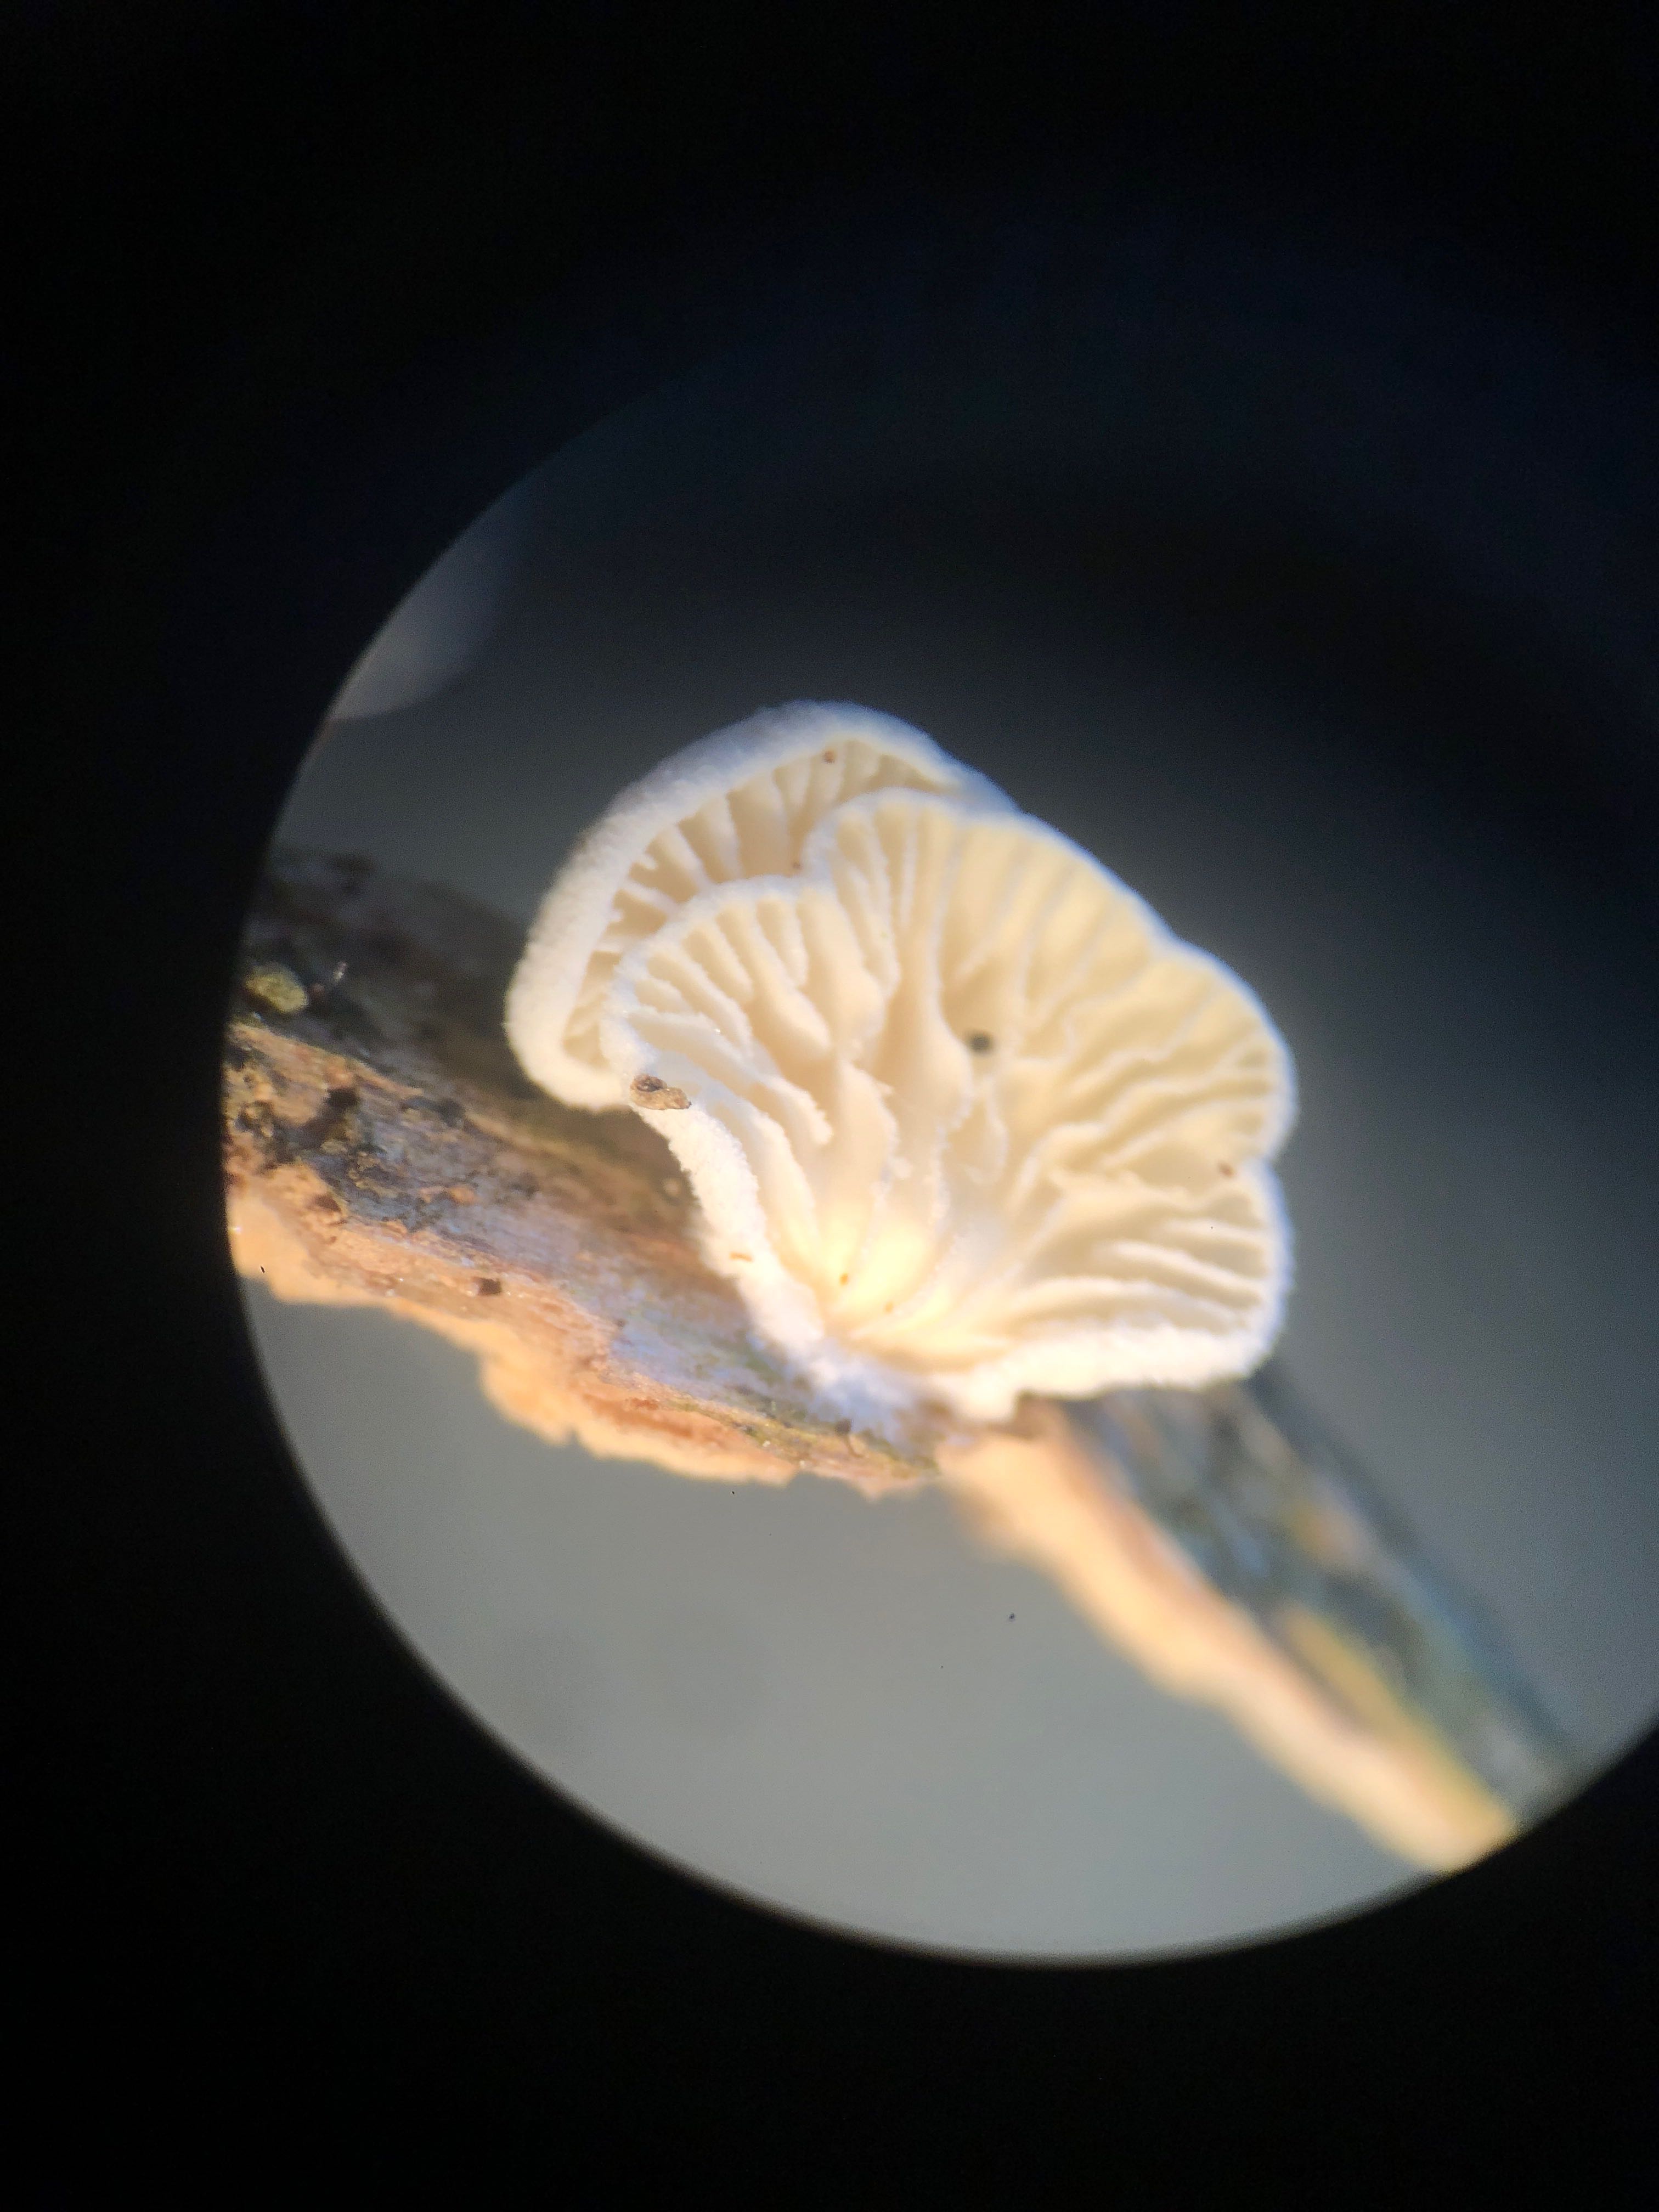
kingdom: Fungi
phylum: Basidiomycota
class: Agaricomycetes
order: Agaricales
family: Cyphellaceae
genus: Cheimonophyllum
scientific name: Cheimonophyllum
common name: vifteblad
